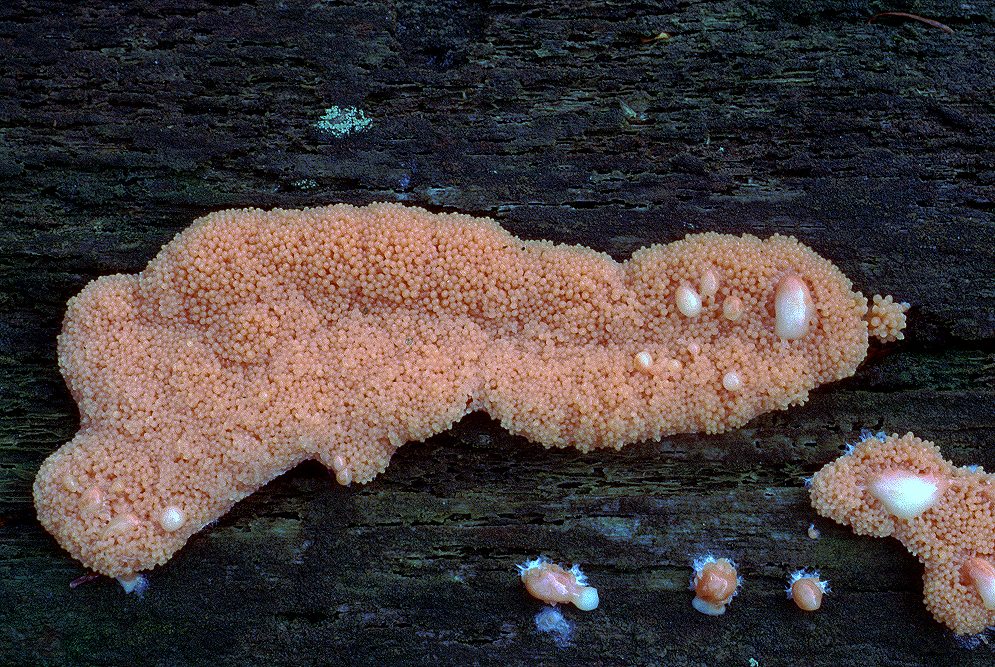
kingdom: Protozoa
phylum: Mycetozoa
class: Myxomycetes
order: Cribrariales
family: Tubiferaceae
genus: Tubifera
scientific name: Tubifera ferruginosa
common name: kanel-støvrør
